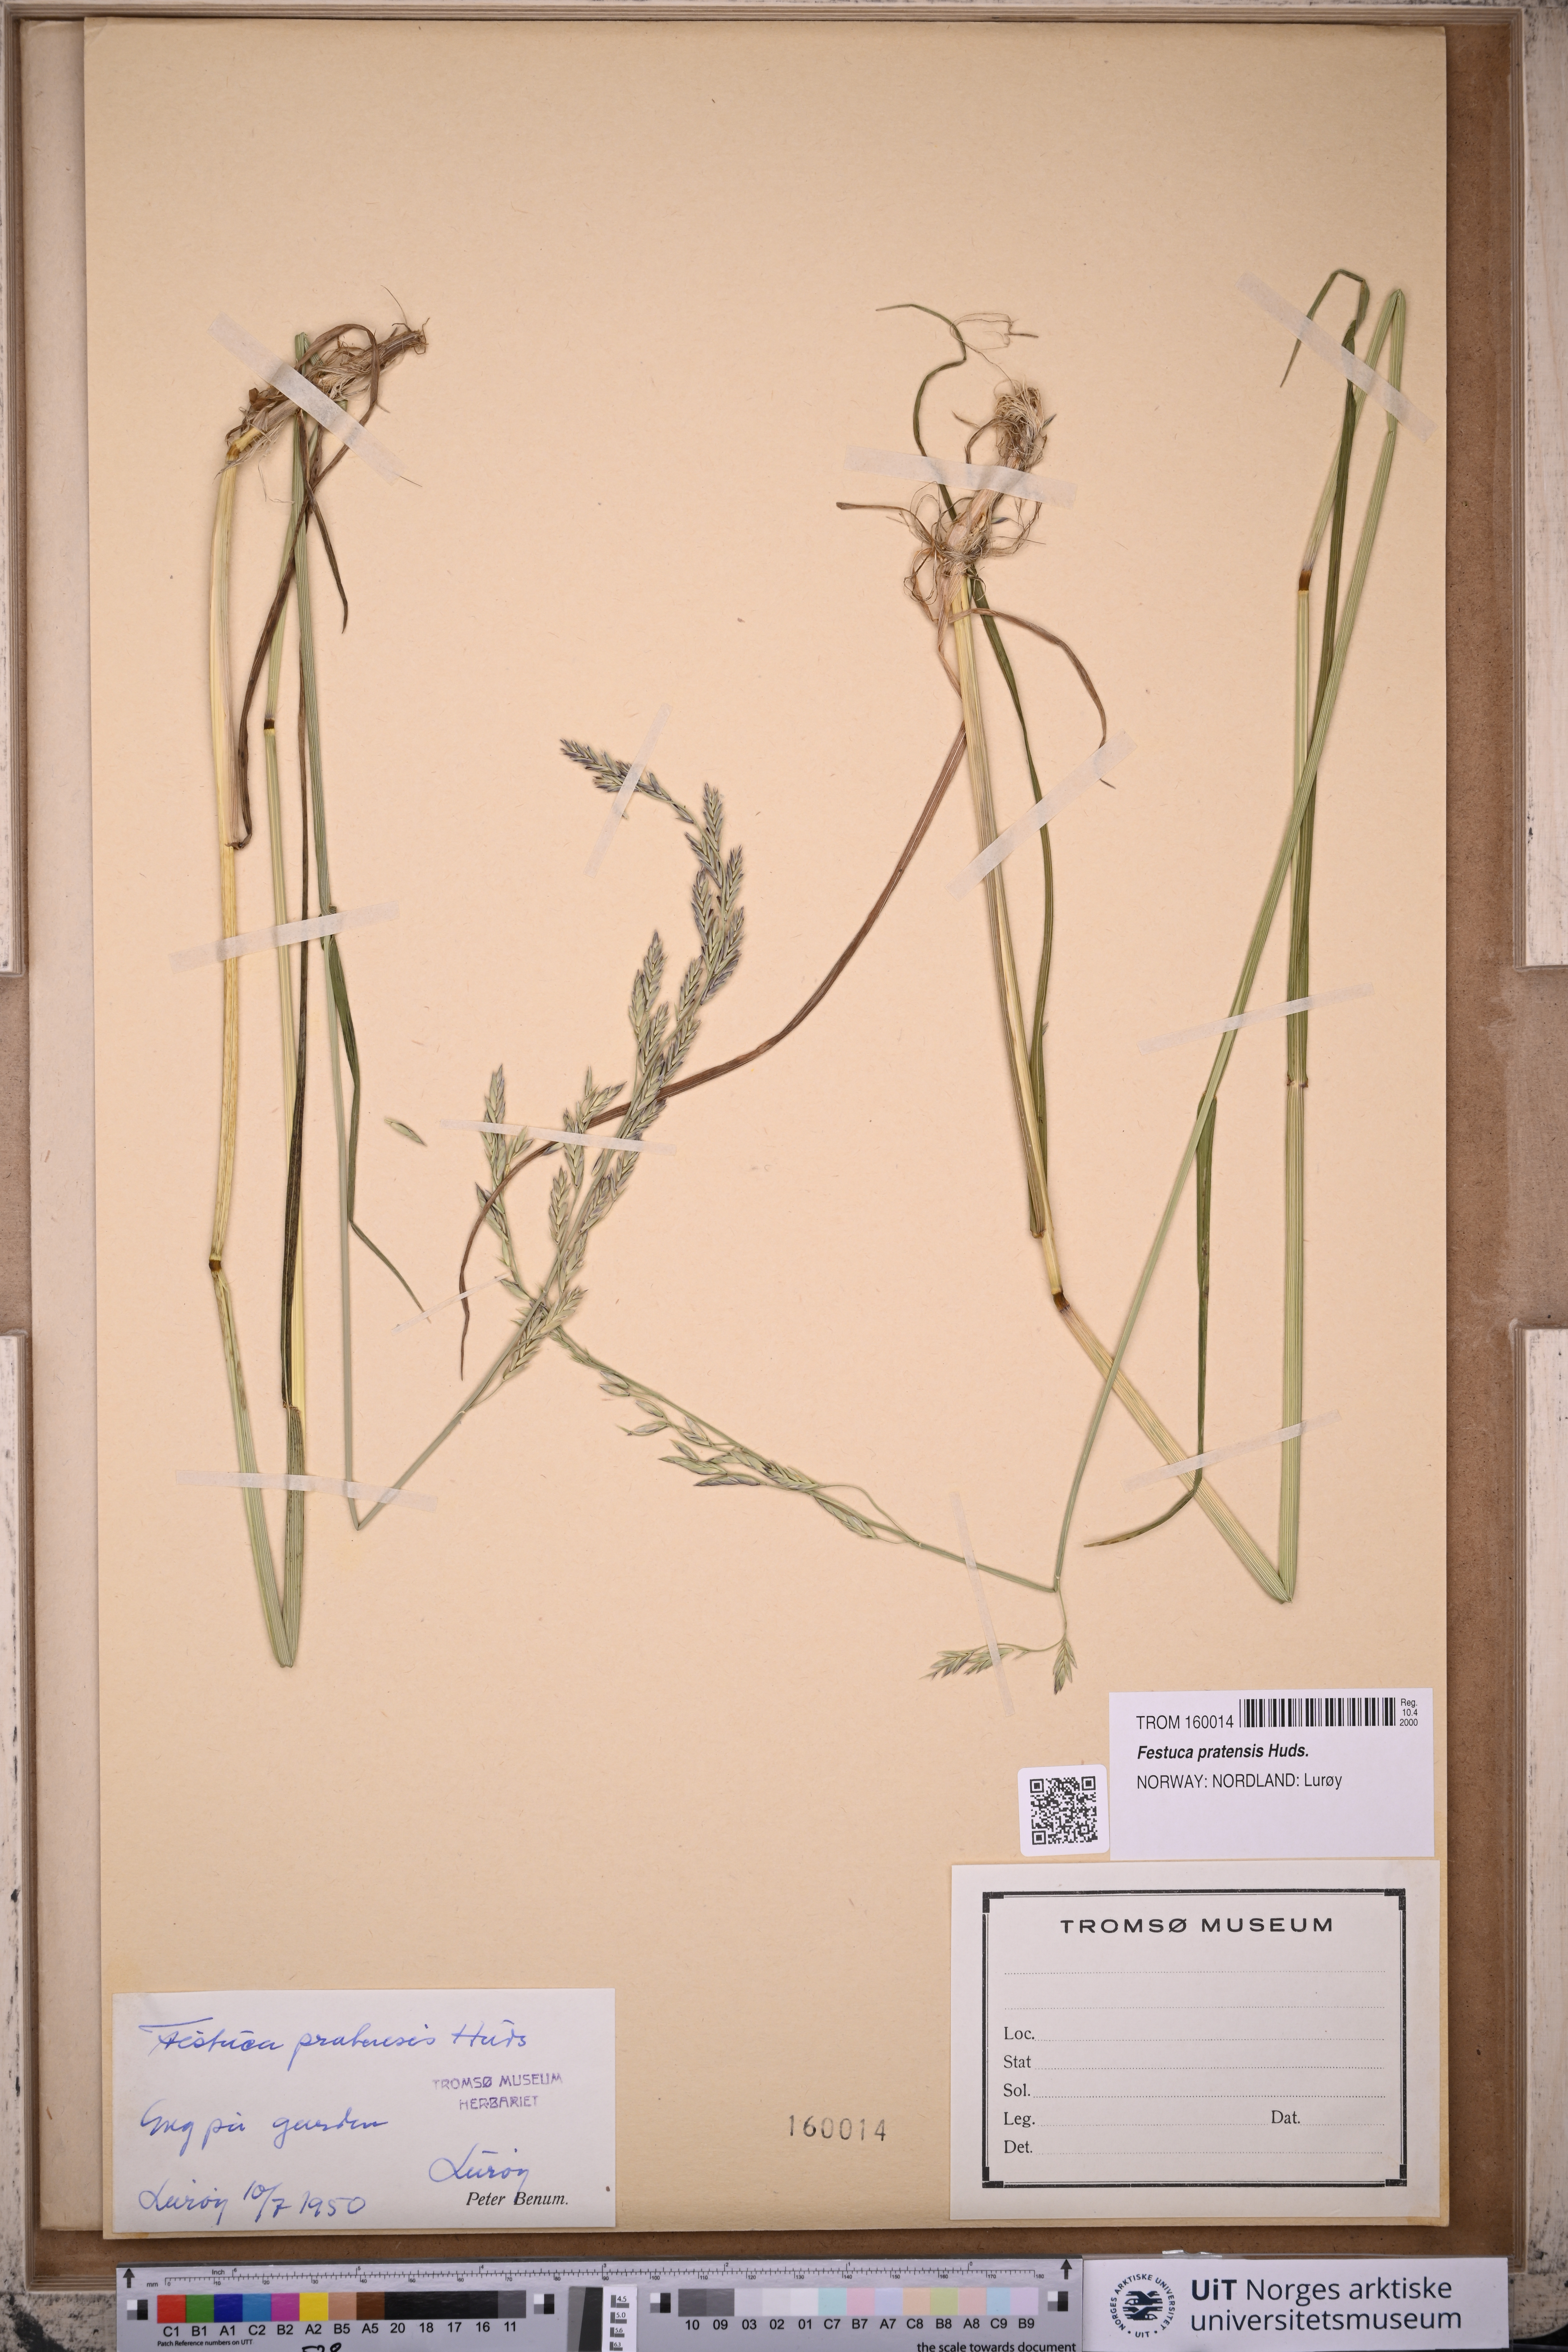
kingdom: Plantae
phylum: Tracheophyta
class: Liliopsida
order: Poales
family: Poaceae
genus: Lolium
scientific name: Lolium pratense
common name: Dover grass
